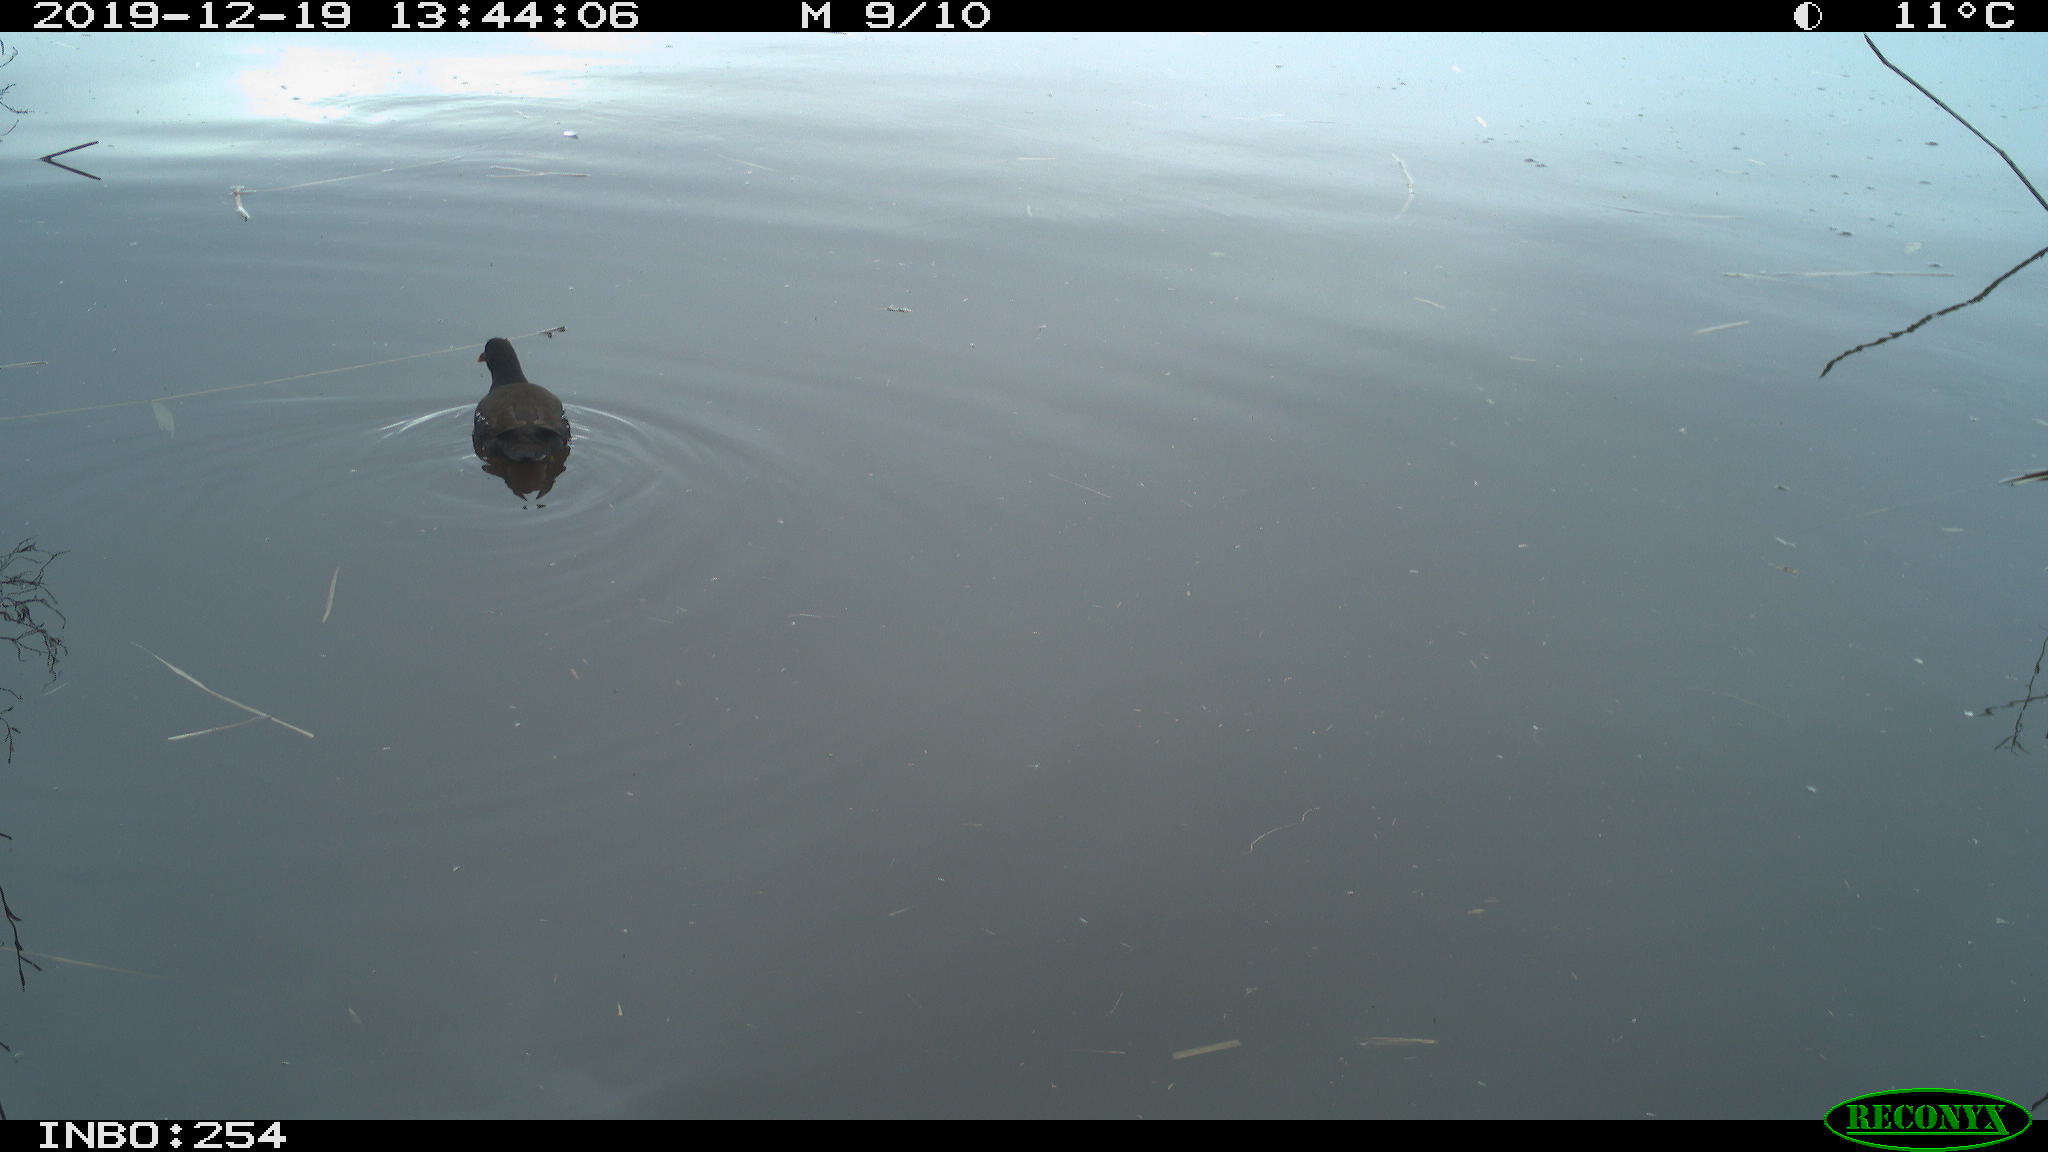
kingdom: Animalia
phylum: Chordata
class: Aves
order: Gruiformes
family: Rallidae
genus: Gallinula
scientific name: Gallinula chloropus
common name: Common moorhen
